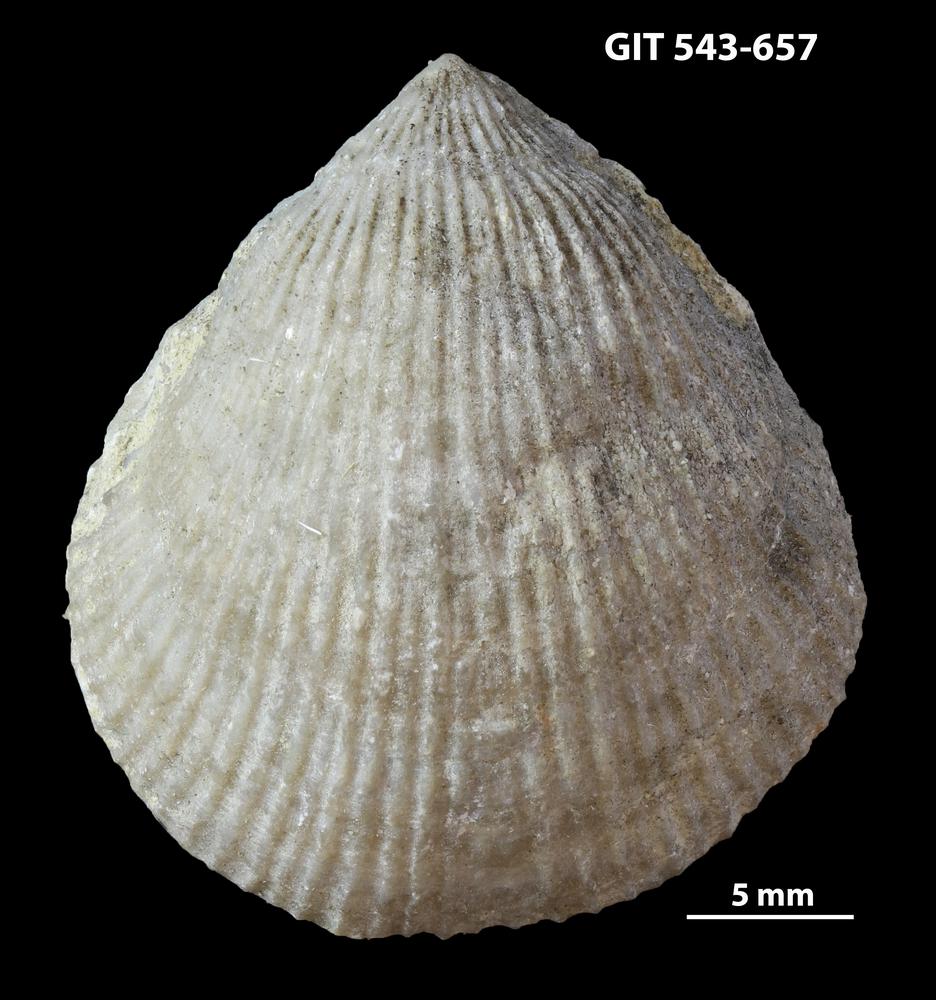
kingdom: Animalia
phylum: Brachiopoda
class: Rhynchonellata
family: Clitambonitidae
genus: Vellamo
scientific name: Vellamo Orthis verneuili
